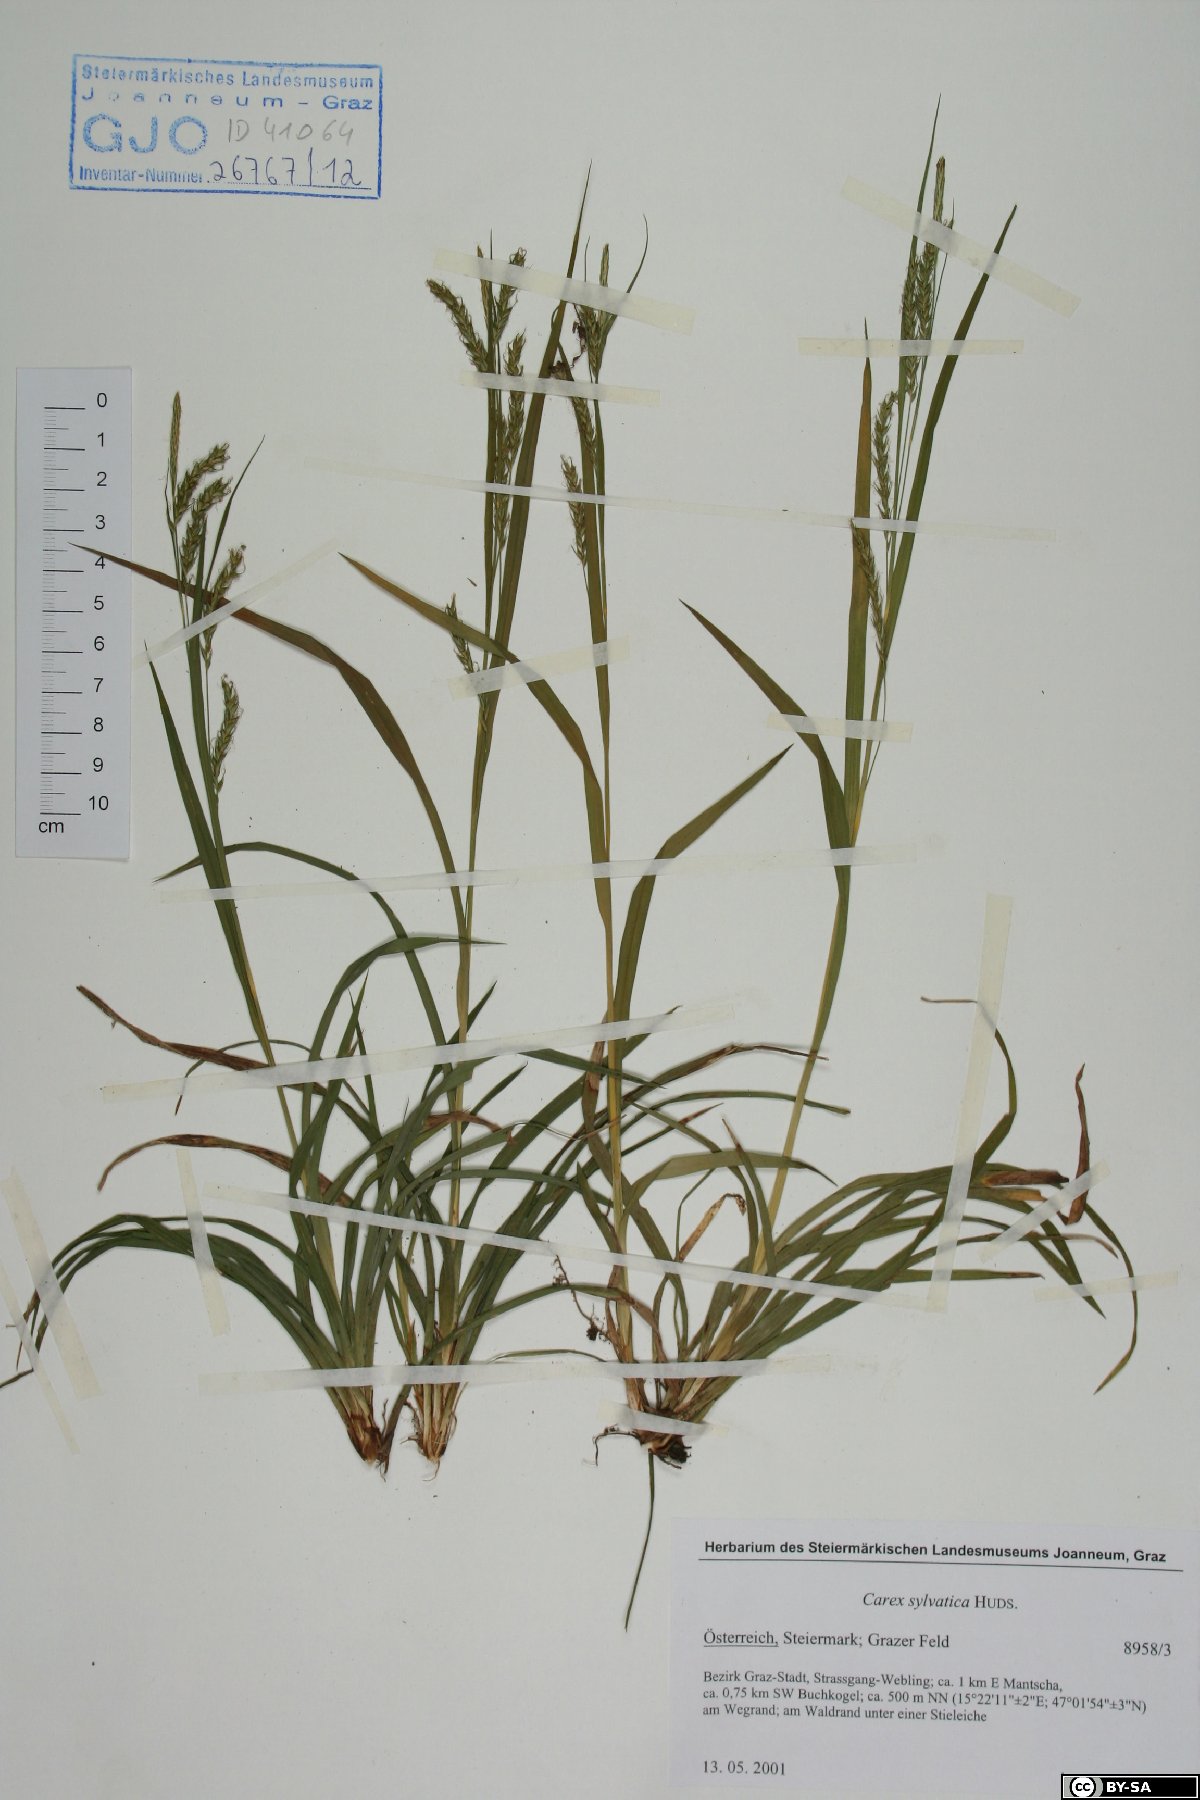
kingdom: Plantae
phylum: Tracheophyta
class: Liliopsida
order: Poales
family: Cyperaceae
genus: Carex
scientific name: Carex sylvatica
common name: Wood-sedge
